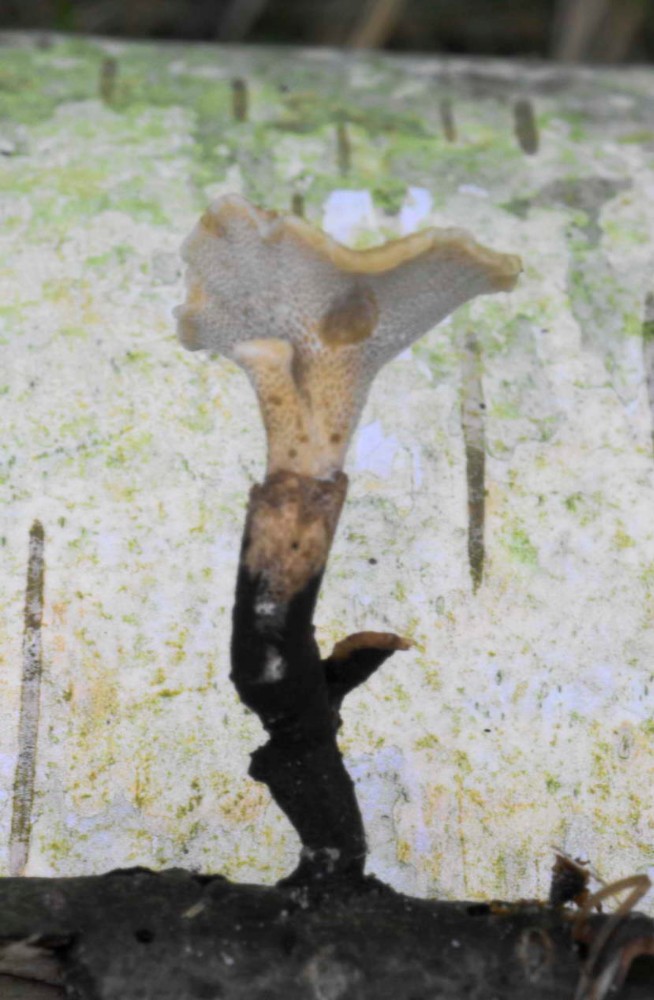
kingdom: Fungi
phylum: Basidiomycota
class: Agaricomycetes
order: Polyporales
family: Polyporaceae
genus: Cerioporus
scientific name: Cerioporus varius
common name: foranderlig stilkporesvamp
